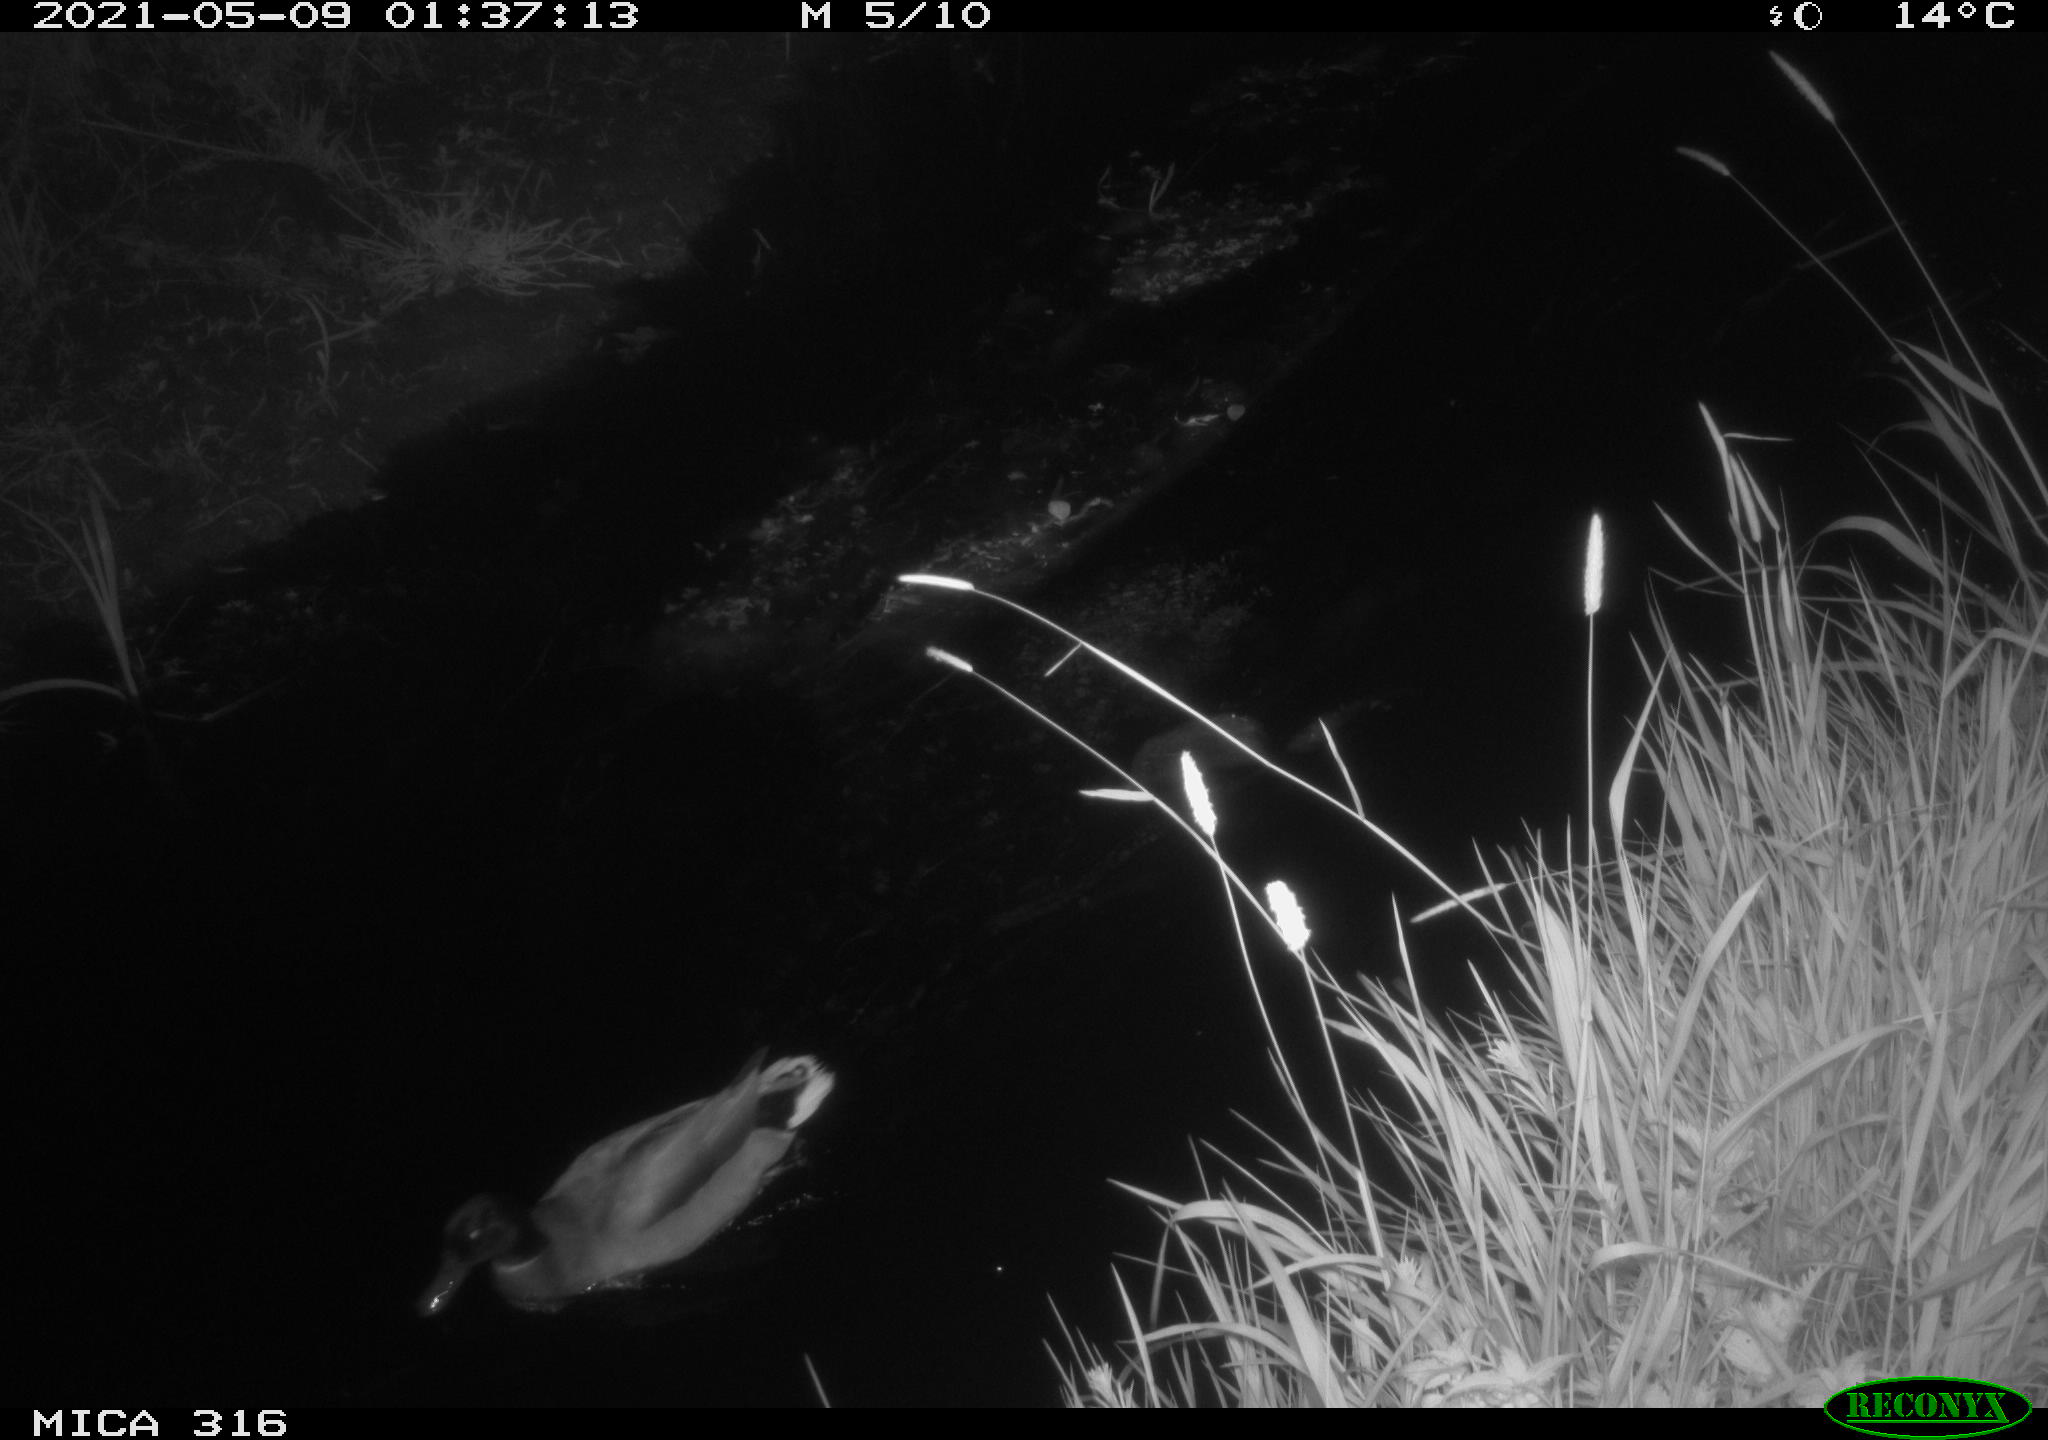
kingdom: Animalia
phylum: Chordata
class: Aves
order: Gruiformes
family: Rallidae
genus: Fulica
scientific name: Fulica atra
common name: Eurasian coot
